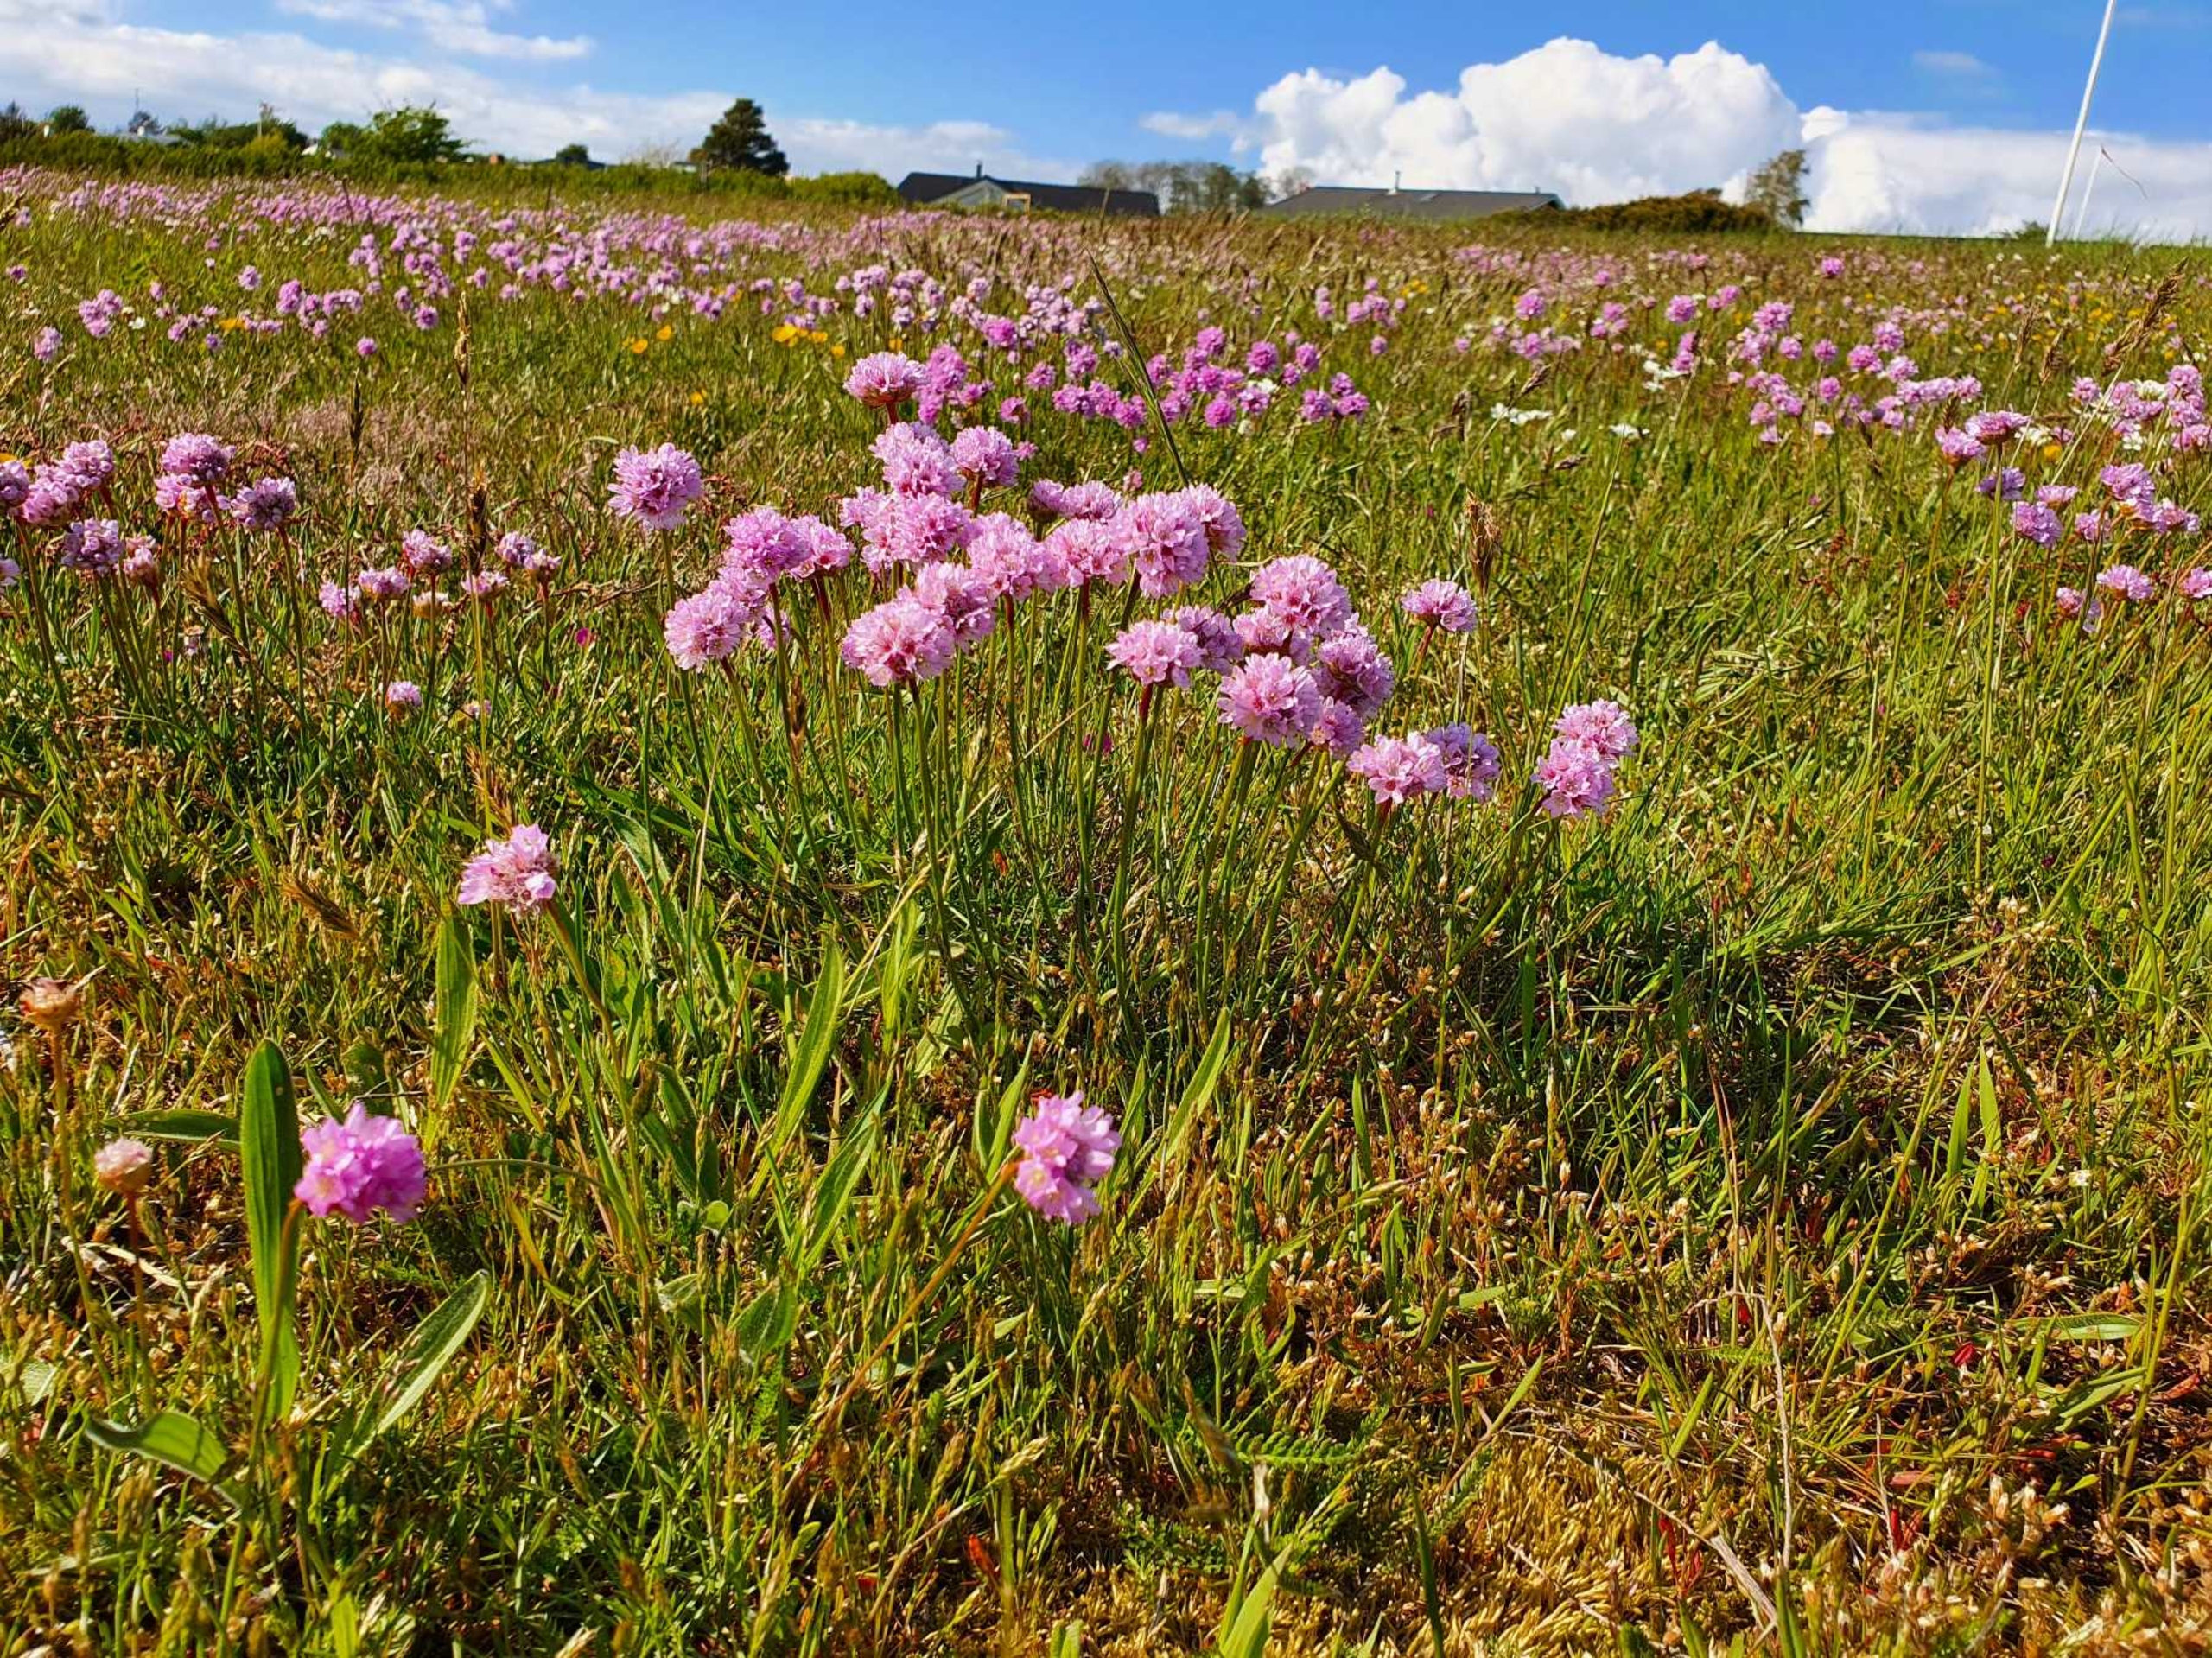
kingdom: Plantae
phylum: Tracheophyta
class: Magnoliopsida
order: Caryophyllales
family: Plumbaginaceae
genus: Armeria
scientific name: Armeria maritima
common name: Engelskgræs
